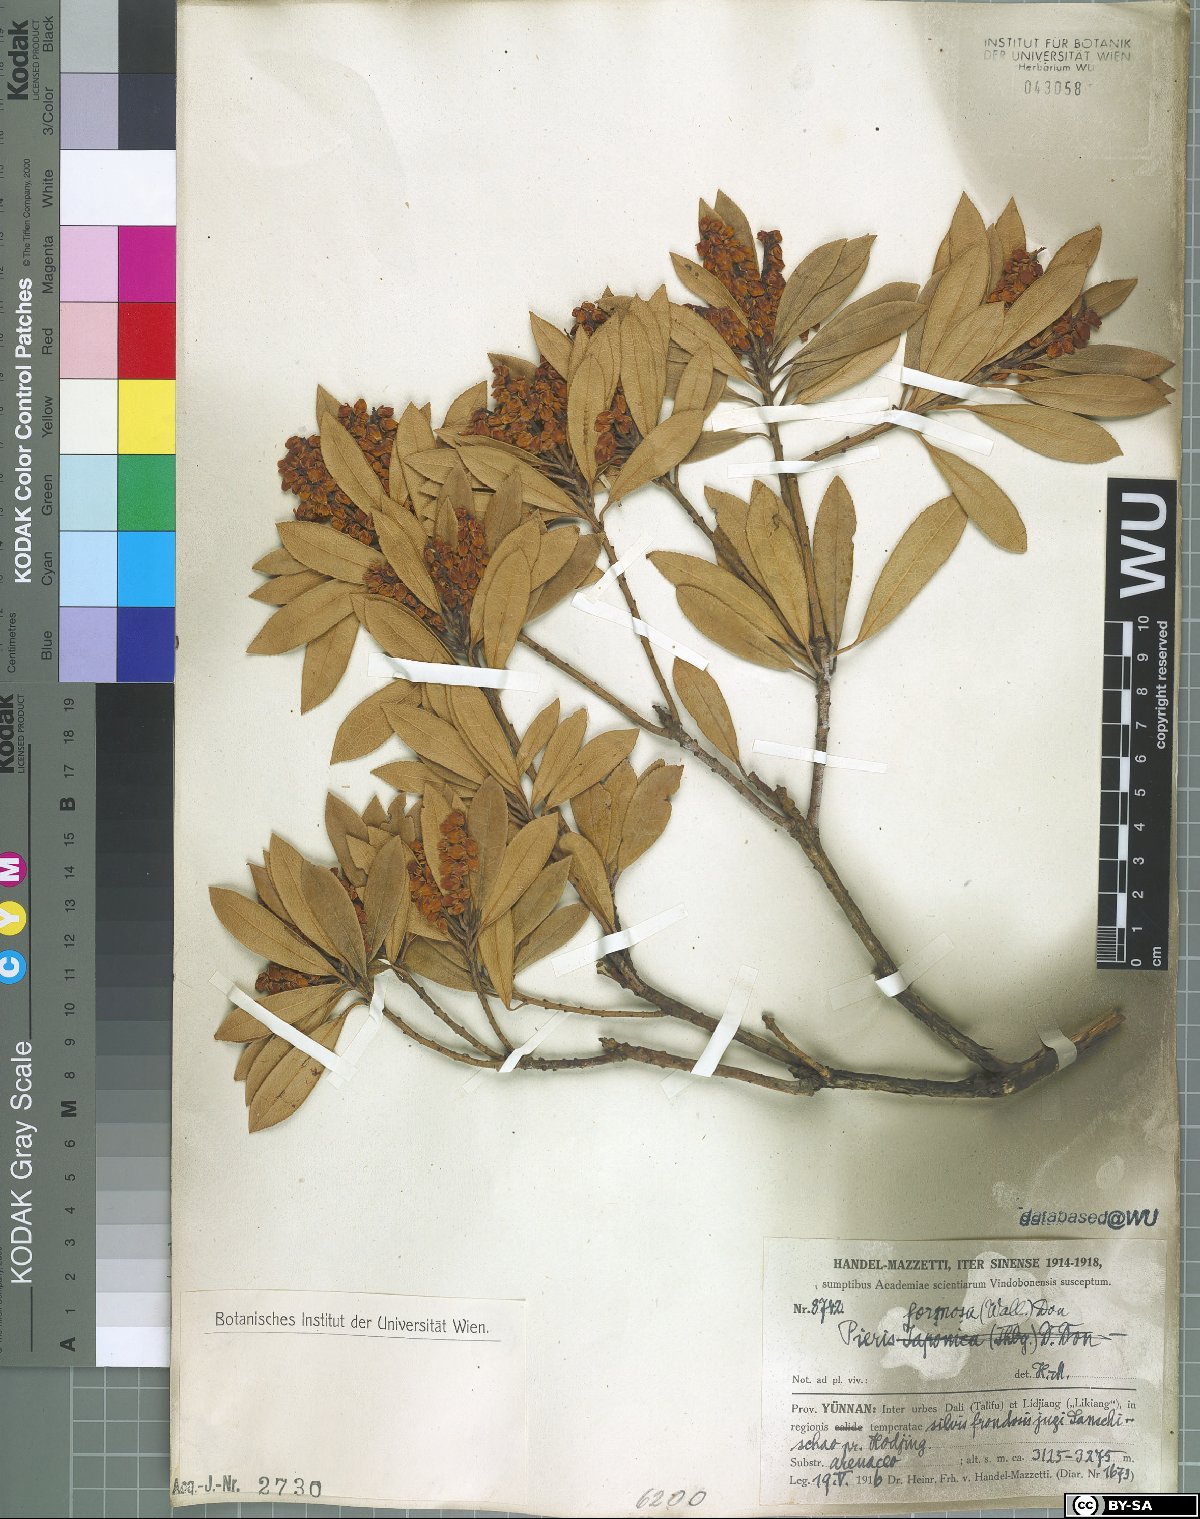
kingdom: Plantae
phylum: Tracheophyta
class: Magnoliopsida
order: Ericales
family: Ericaceae
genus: Pieris
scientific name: Pieris formosa
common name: Formosan pieris
